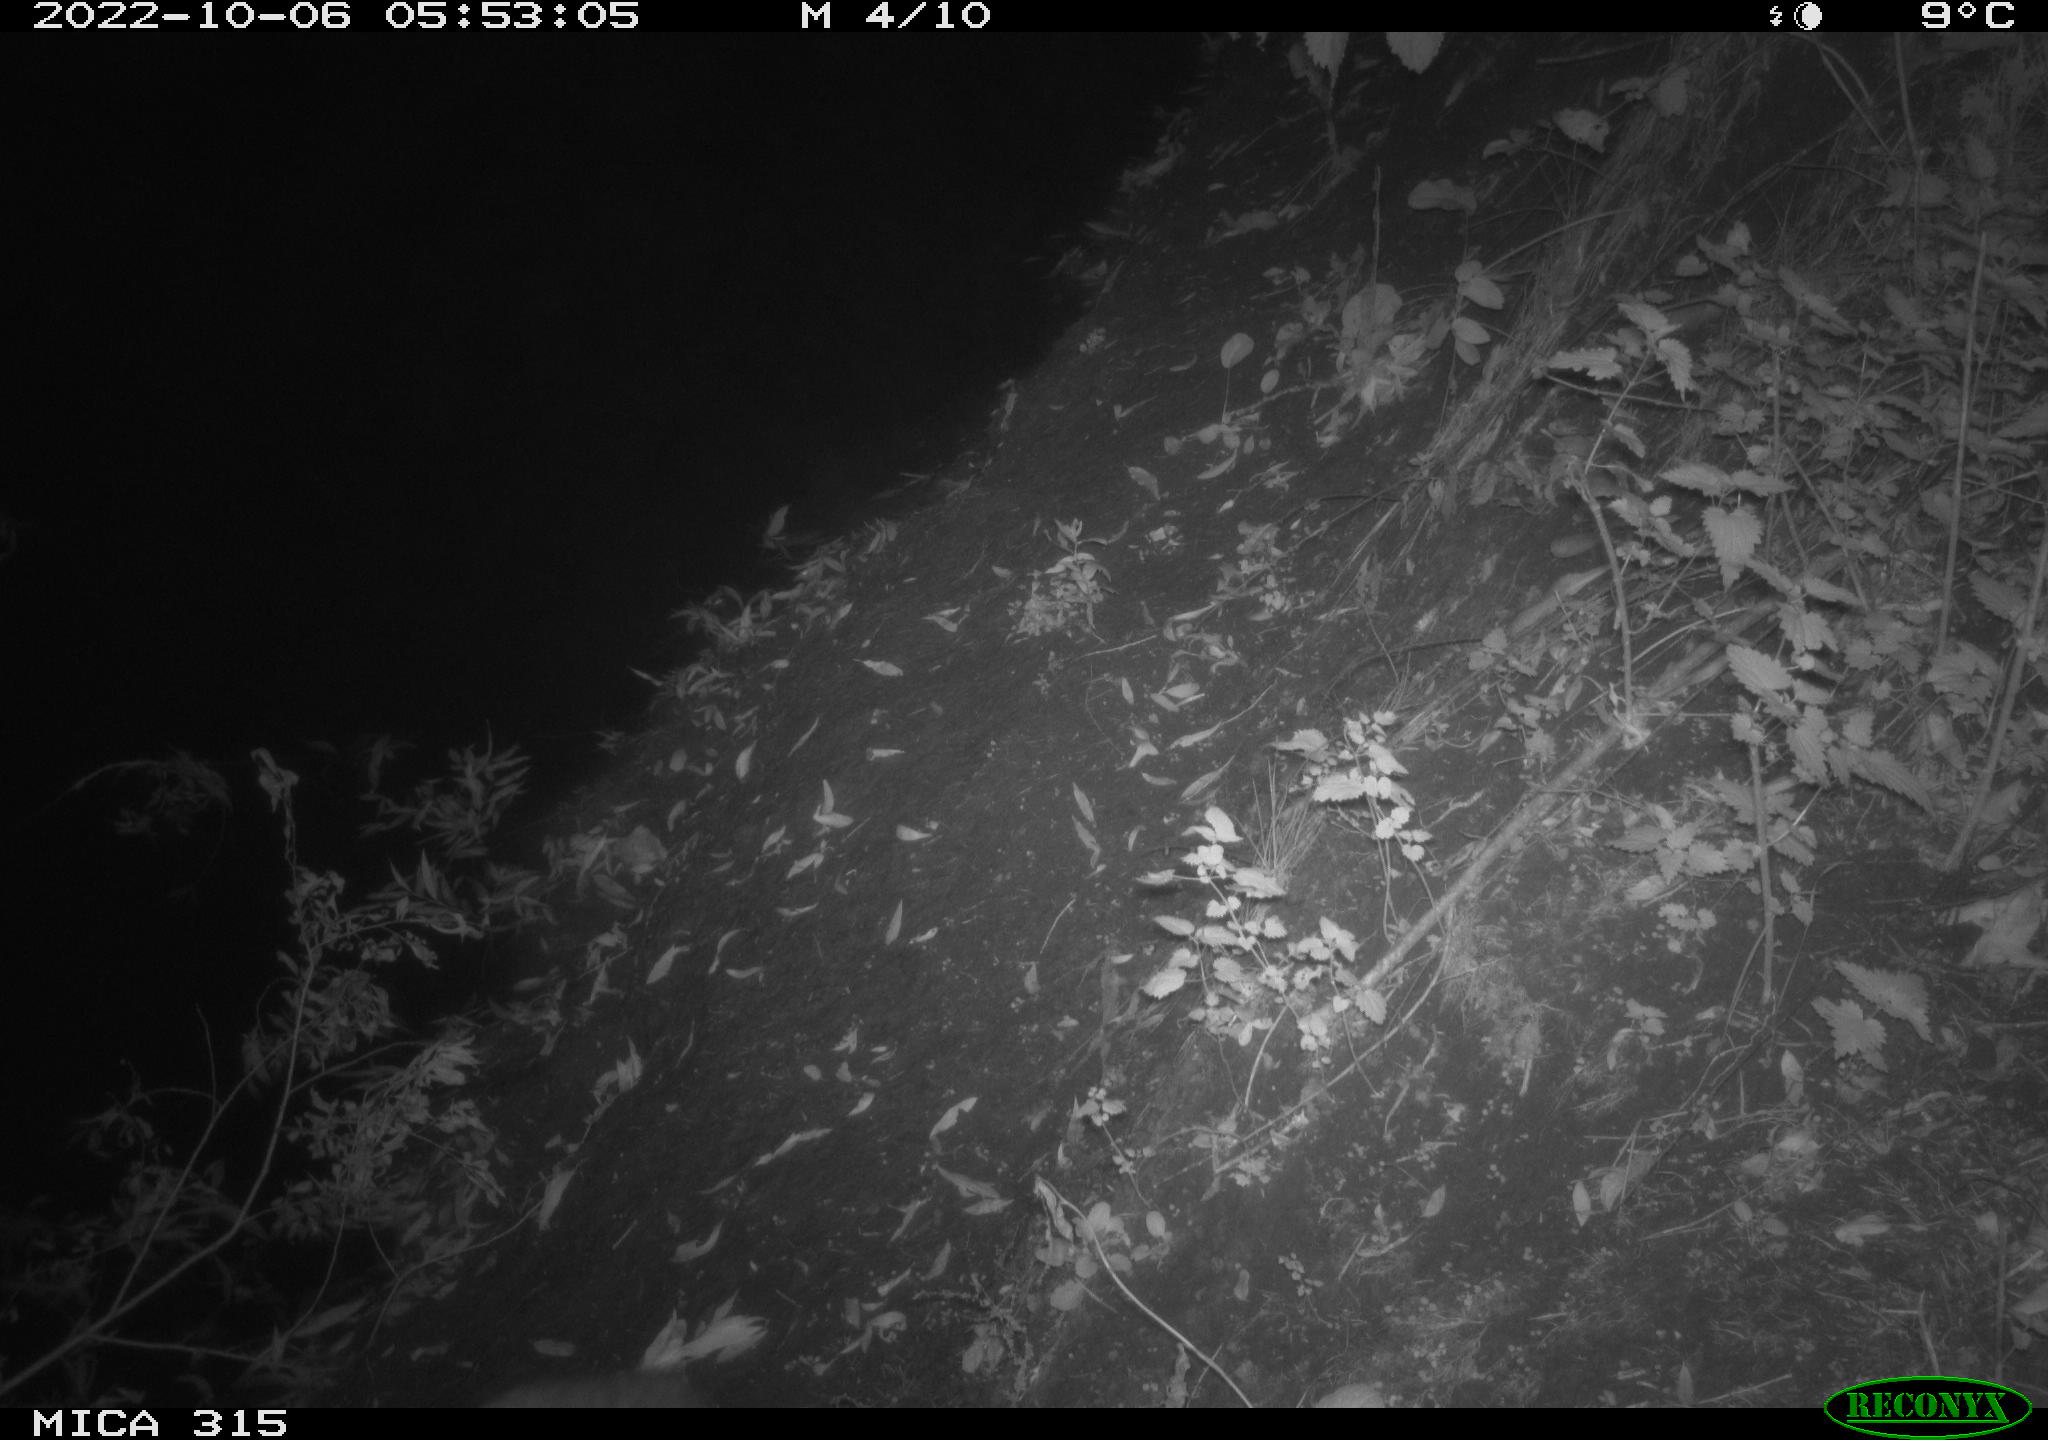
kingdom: Animalia
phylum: Chordata
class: Mammalia
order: Carnivora
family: Canidae
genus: Vulpes
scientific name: Vulpes vulpes
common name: Red fox
